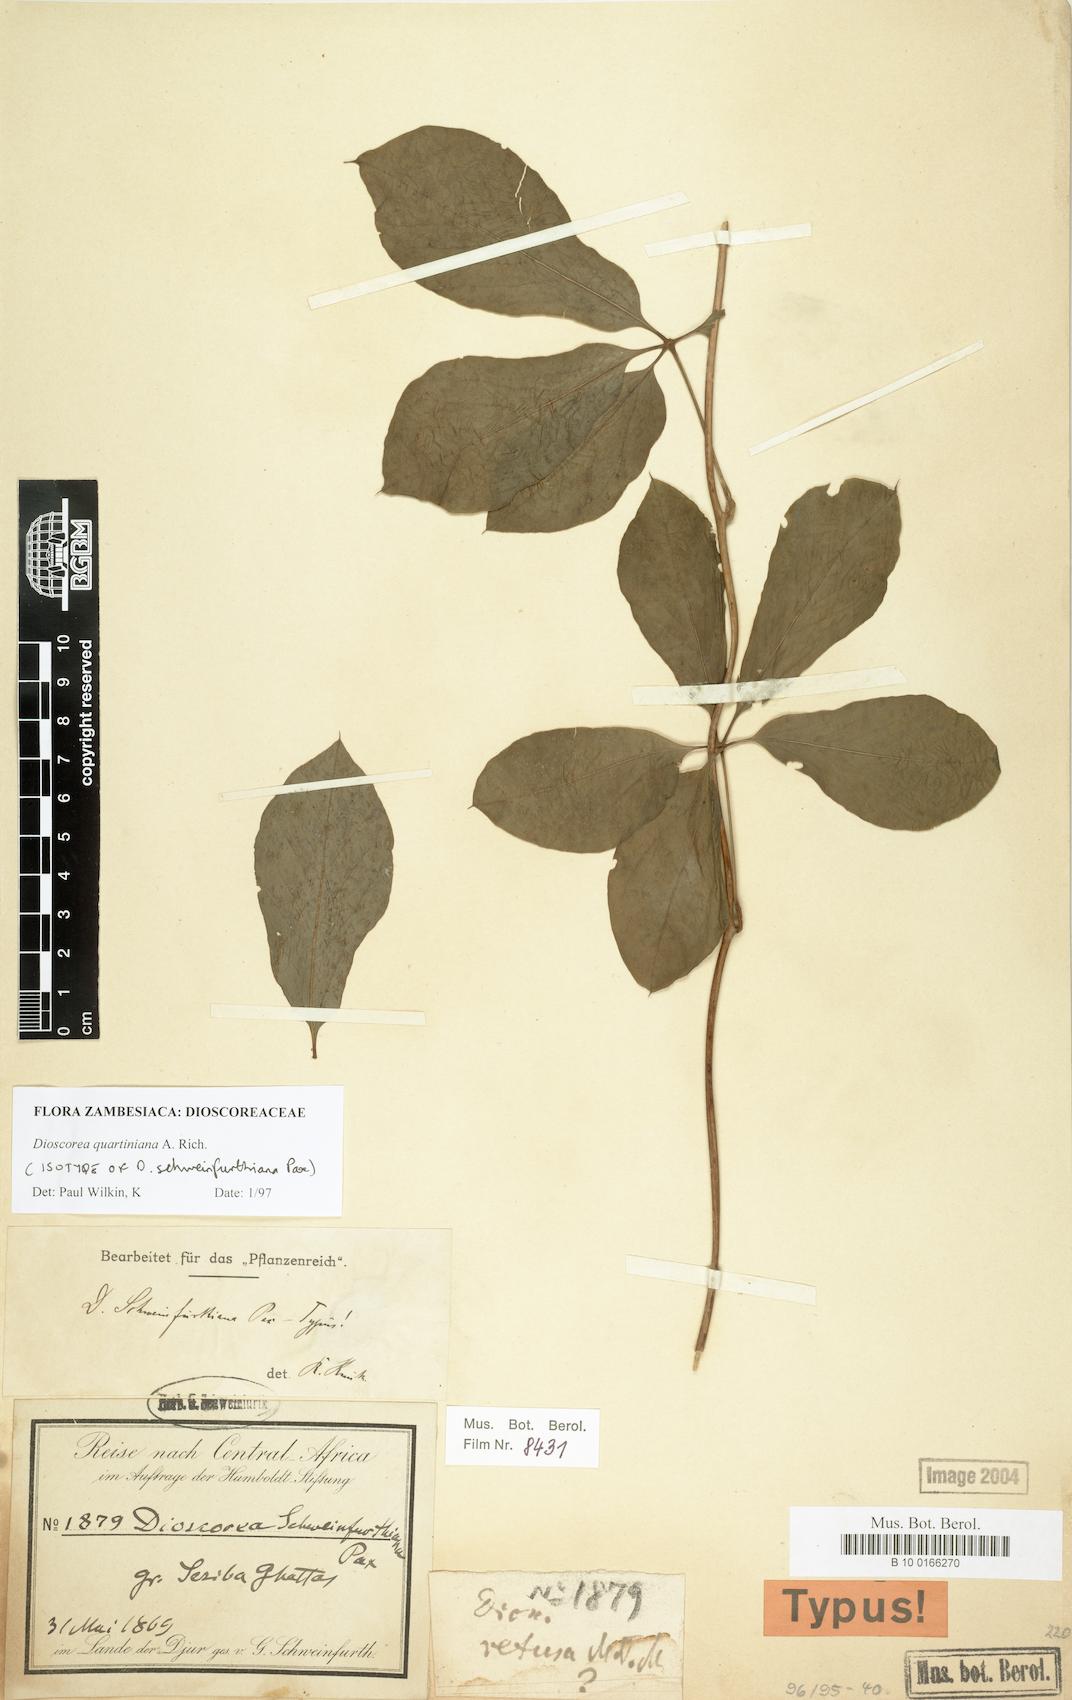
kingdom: Plantae
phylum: Tracheophyta
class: Liliopsida
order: Dioscoreales
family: Dioscoreaceae
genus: Dioscorea
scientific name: Dioscorea quartiniana
